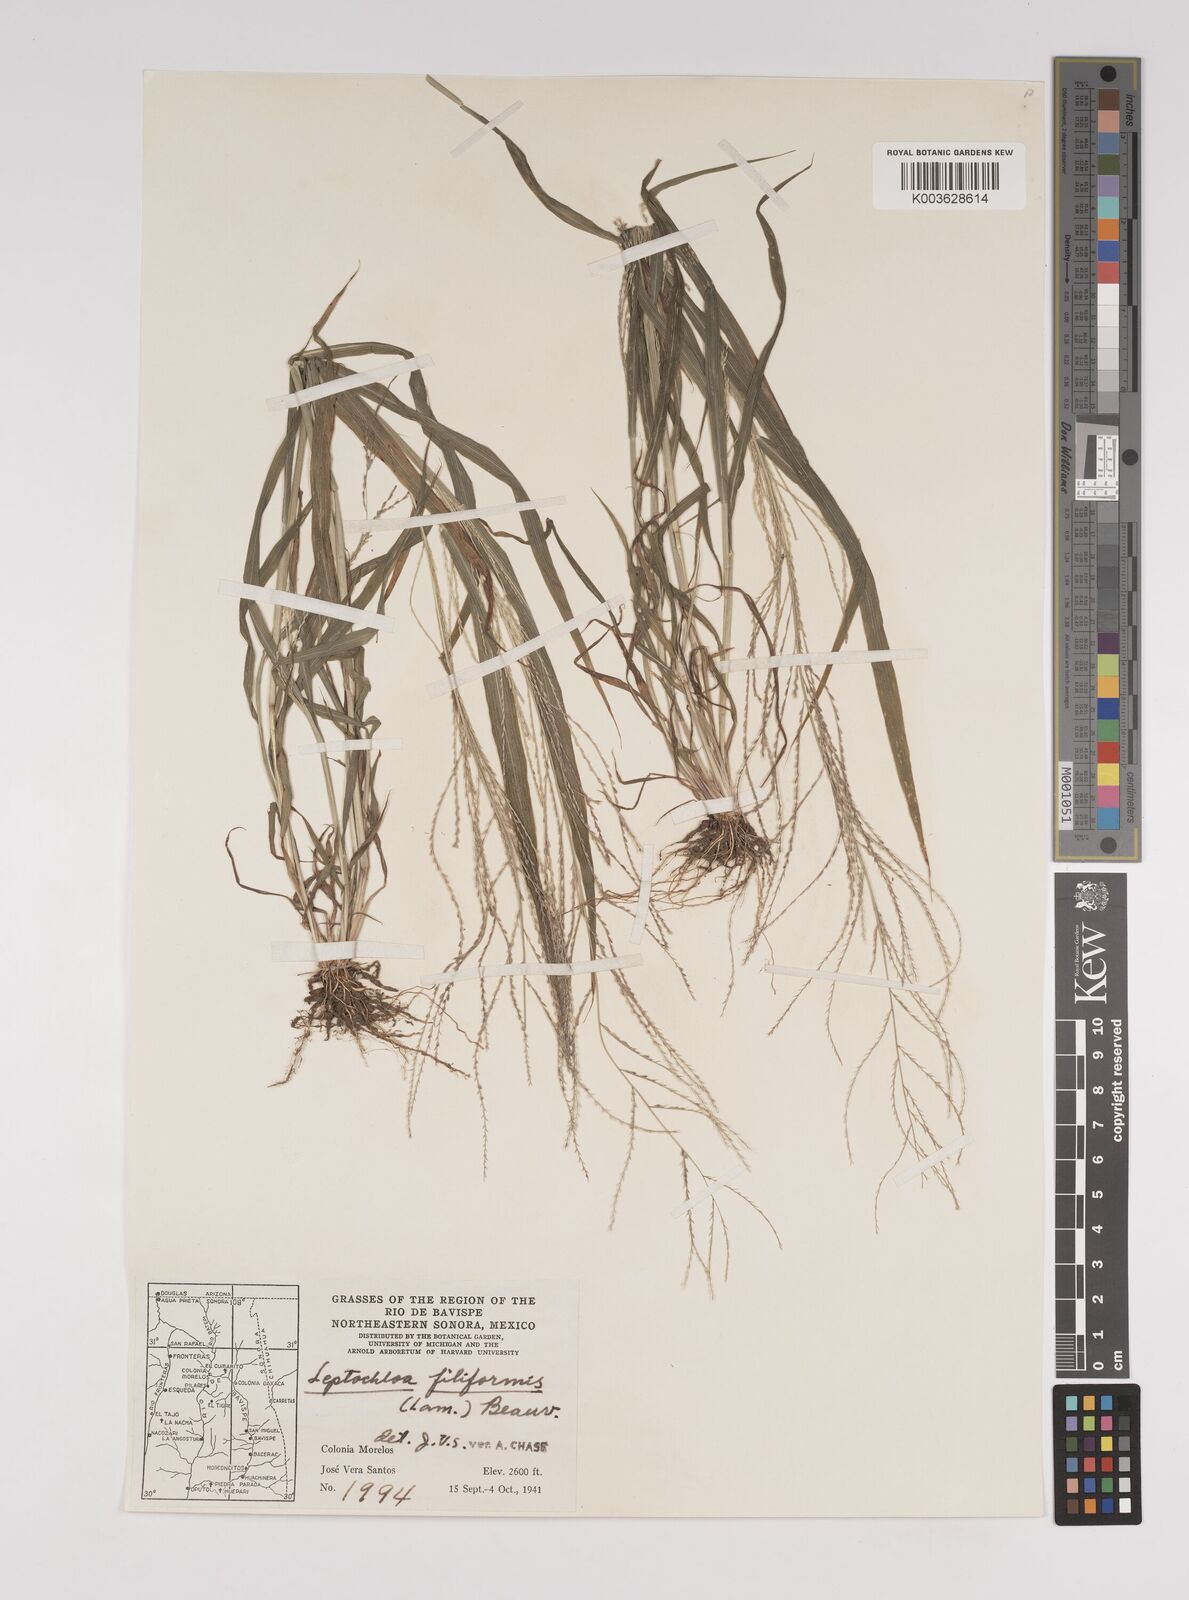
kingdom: Plantae
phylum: Tracheophyta
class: Liliopsida
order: Poales
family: Poaceae
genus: Leptochloa
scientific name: Leptochloa panicea
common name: Mucronate sprangletop
